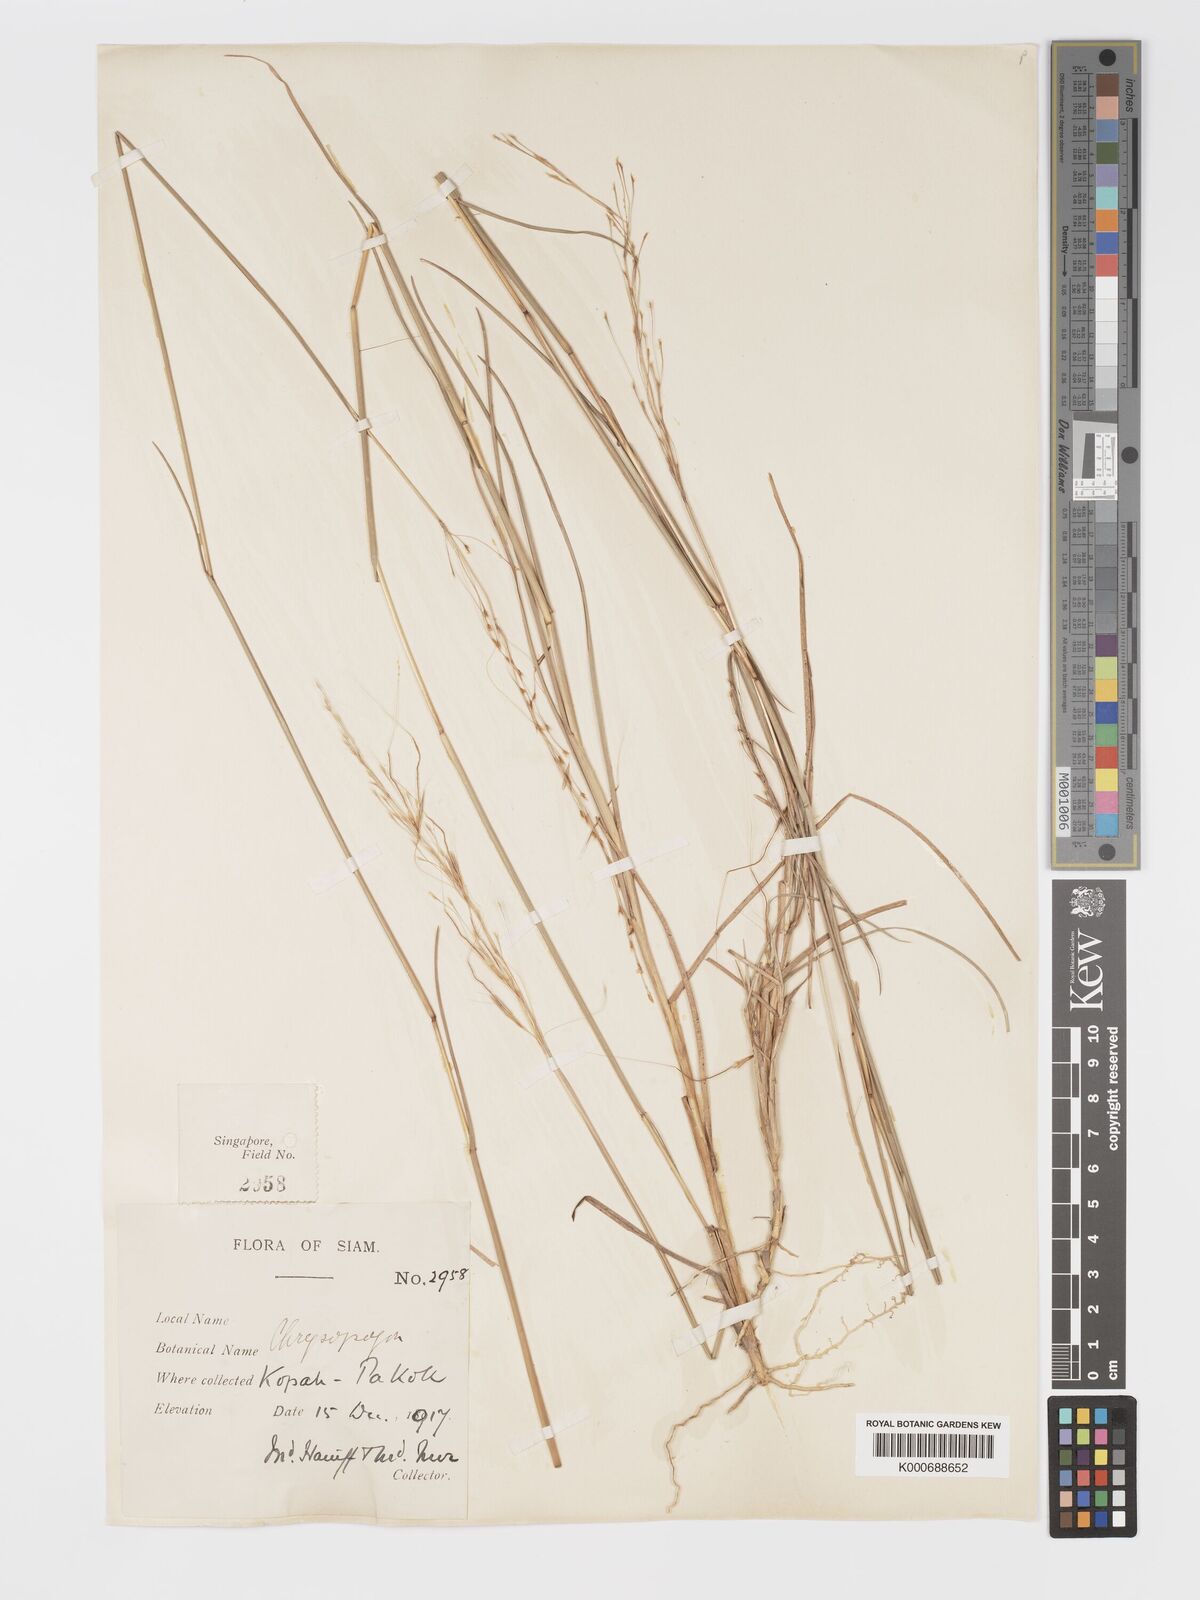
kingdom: Plantae
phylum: Tracheophyta
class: Liliopsida
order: Poales
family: Poaceae
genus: Chrysopogon
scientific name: Chrysopogon orientalis
